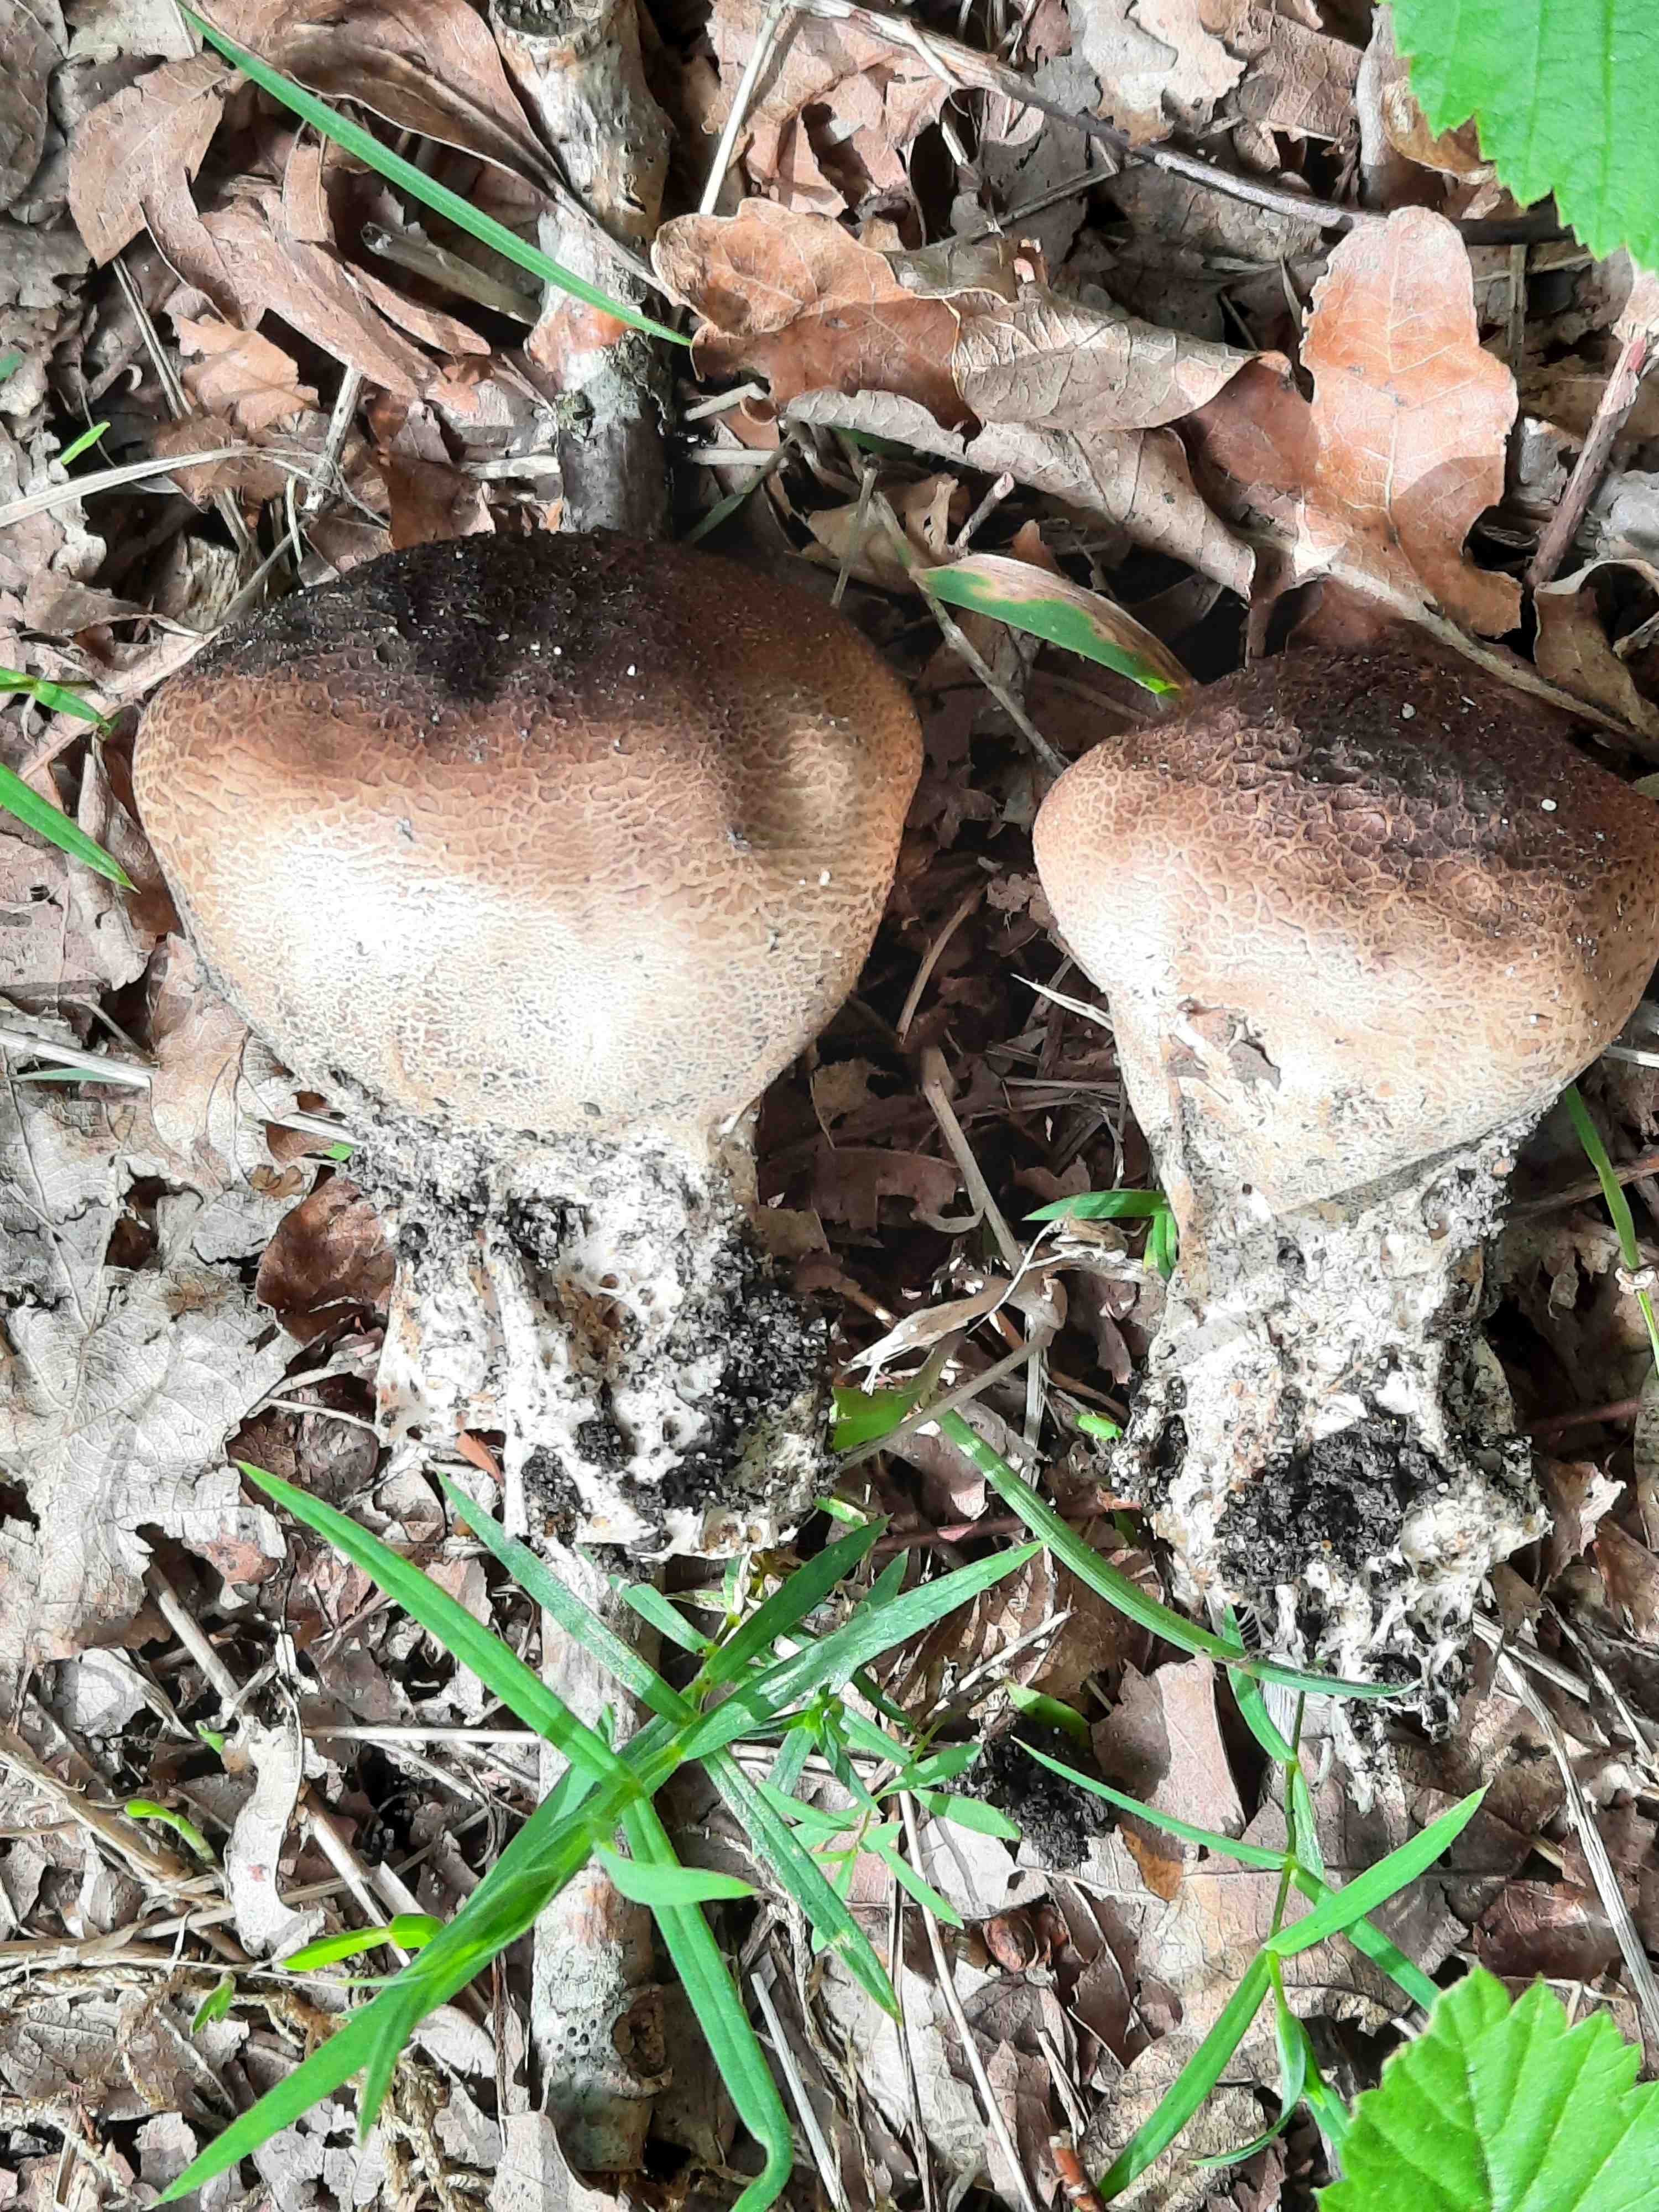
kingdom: Fungi
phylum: Basidiomycota
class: Agaricomycetes
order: Boletales
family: Sclerodermataceae
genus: Scleroderma
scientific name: Scleroderma verrucosum
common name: stilket bruskbold
